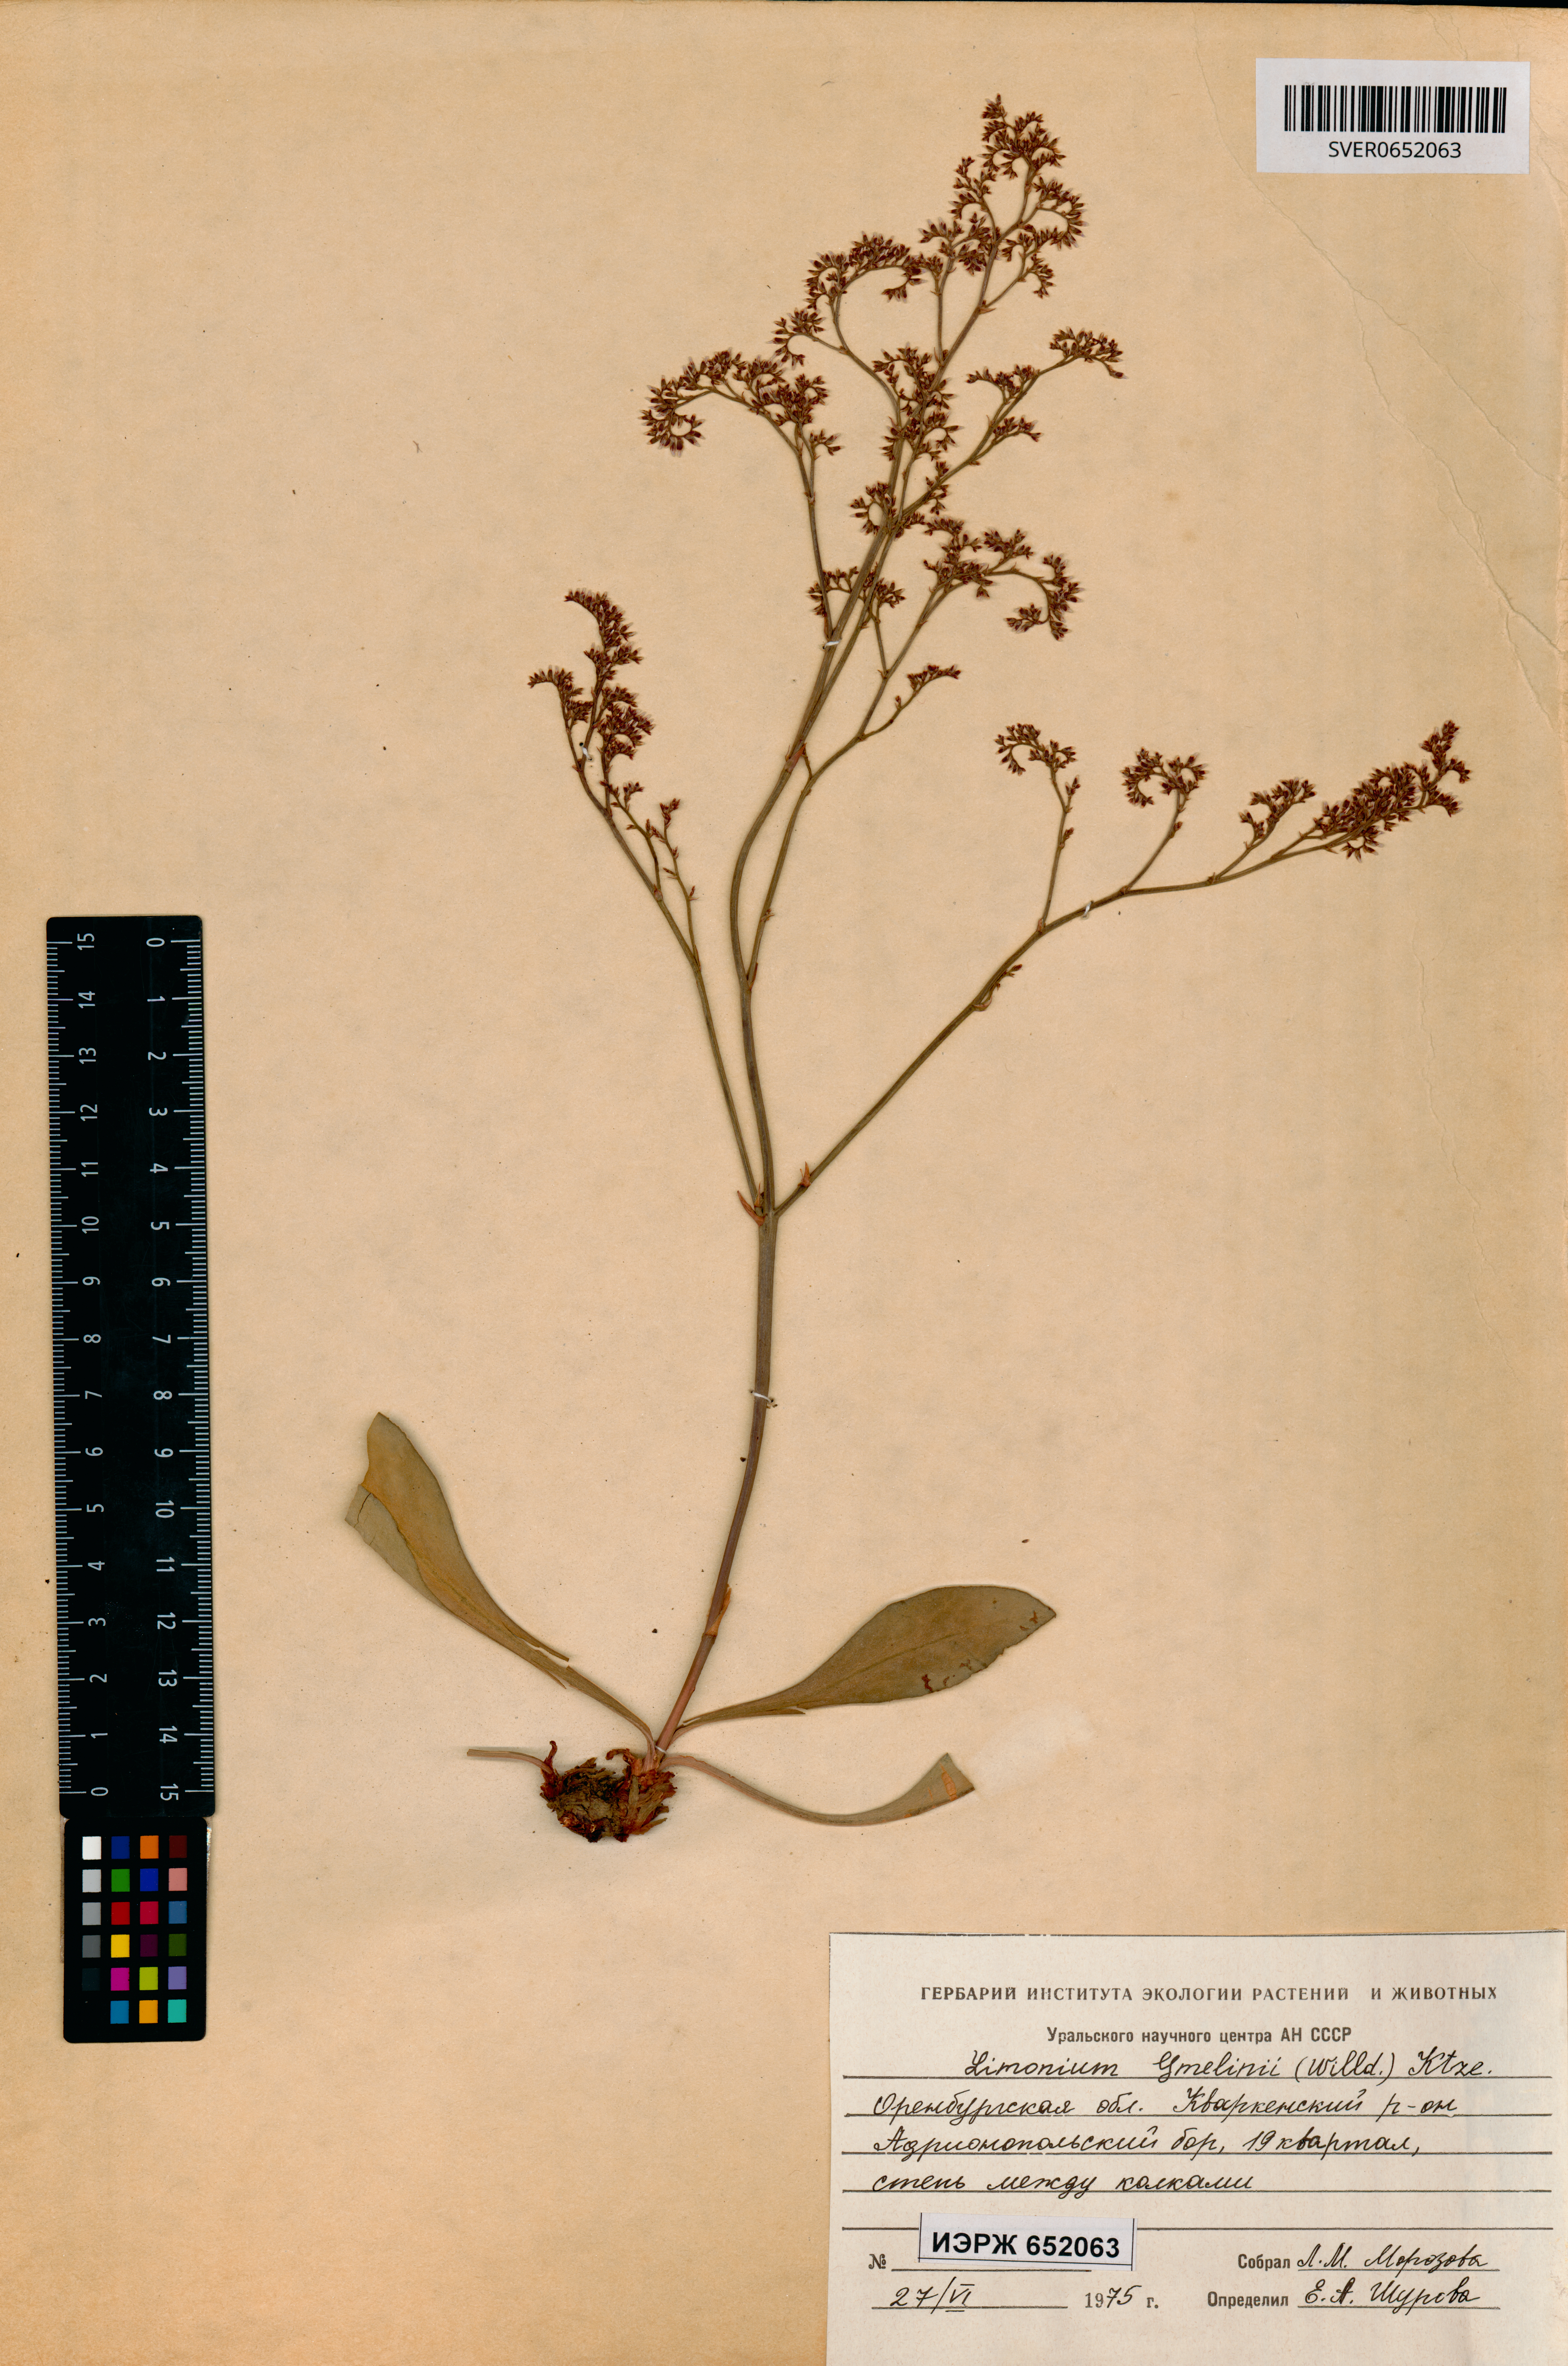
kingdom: Plantae
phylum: Tracheophyta
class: Magnoliopsida
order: Caryophyllales
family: Plumbaginaceae
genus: Limonium
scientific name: Limonium gmelini
